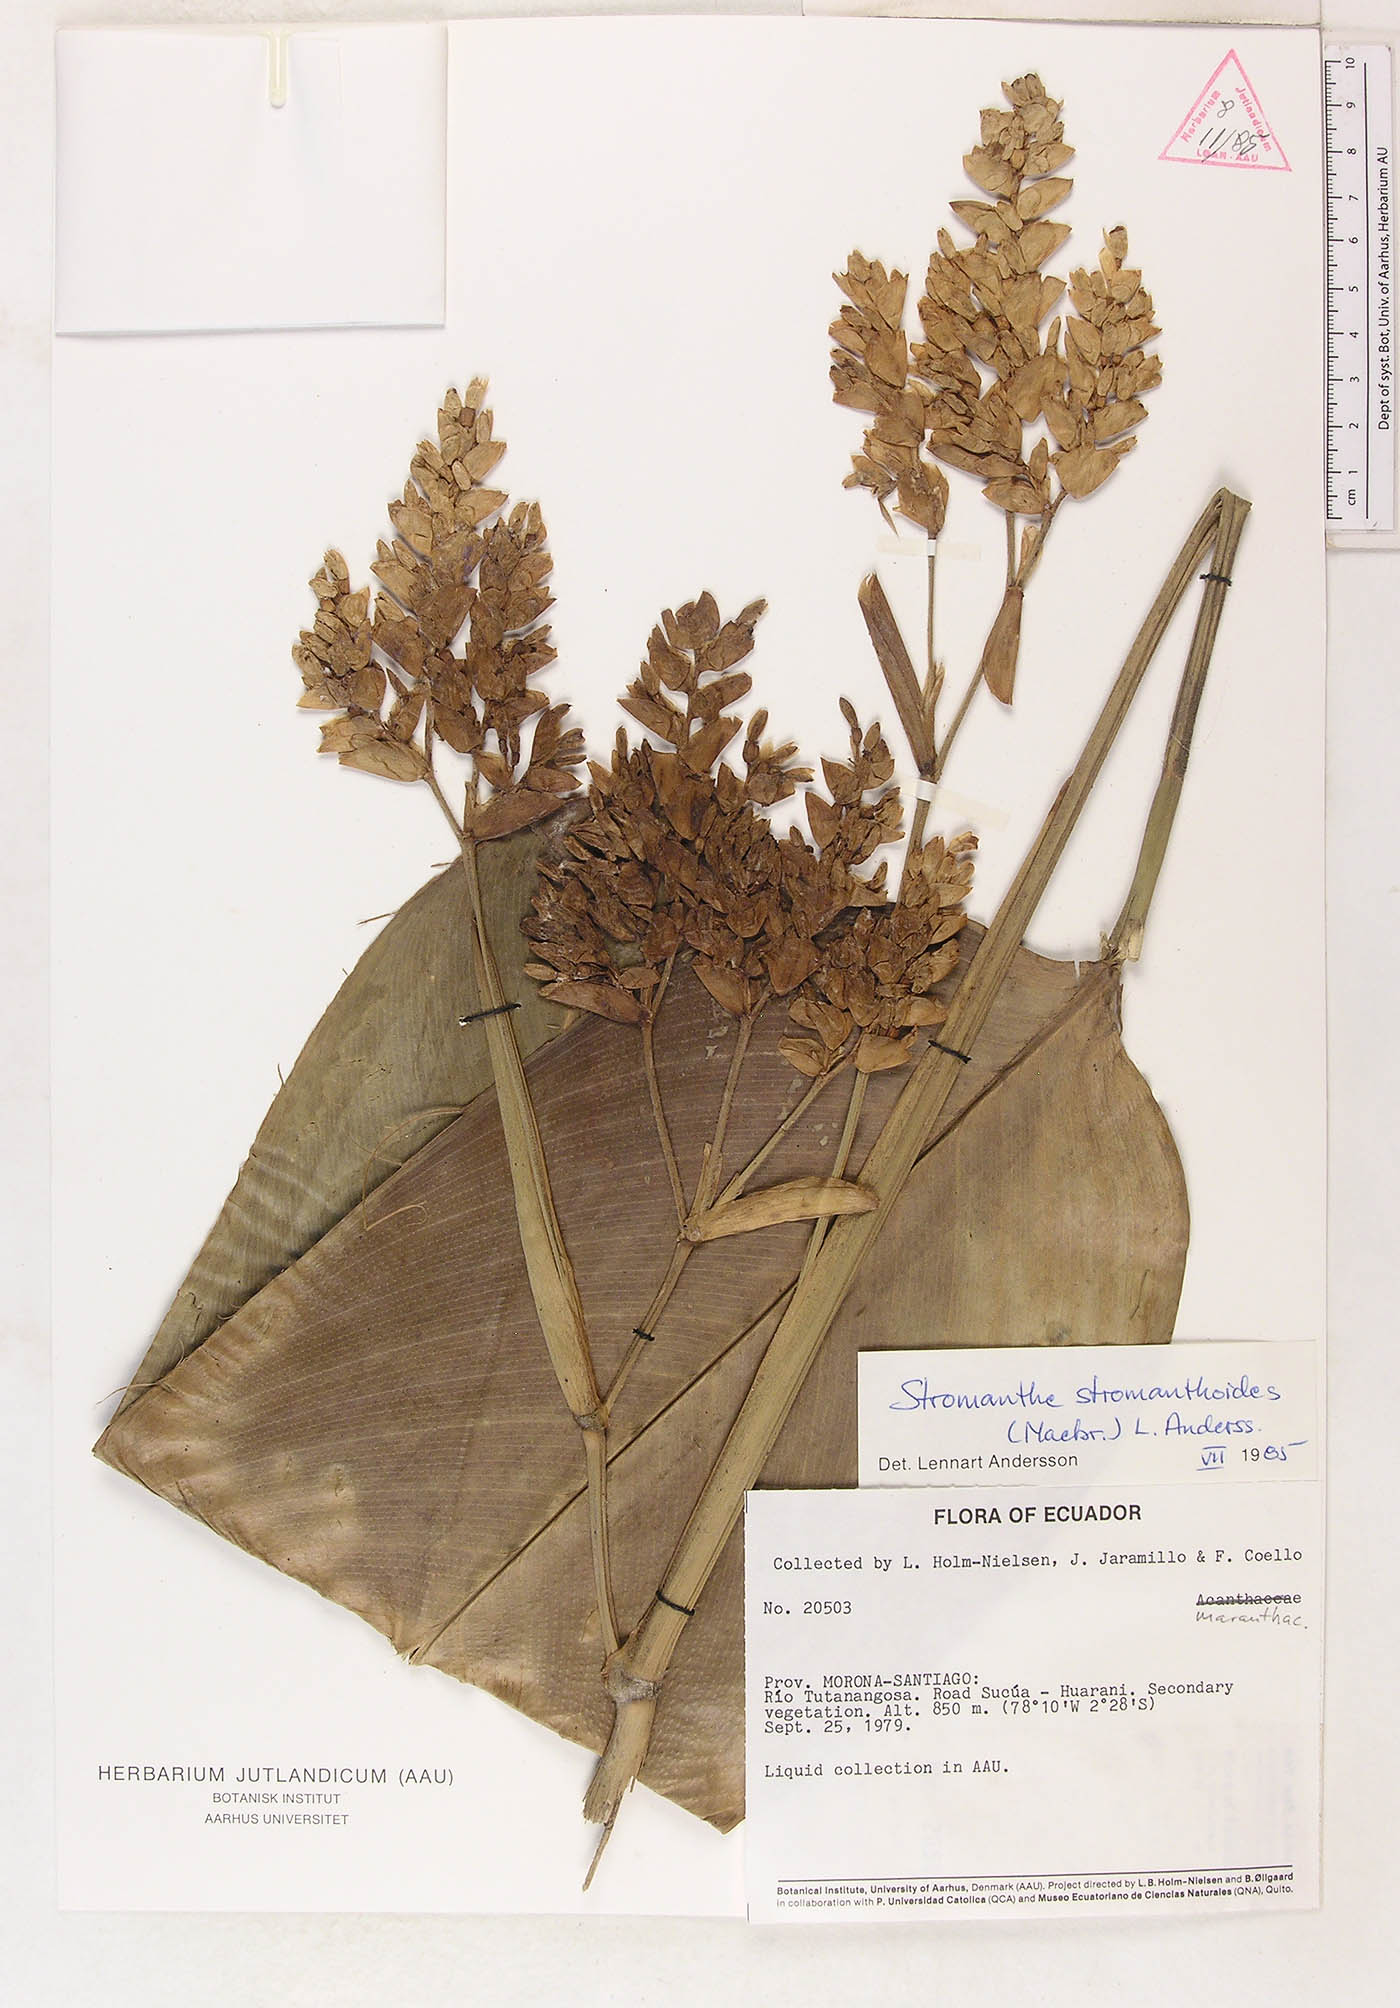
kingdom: Plantae
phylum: Tracheophyta
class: Liliopsida
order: Zingiberales
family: Marantaceae
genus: Stromanthe
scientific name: Stromanthe stromanthoides
